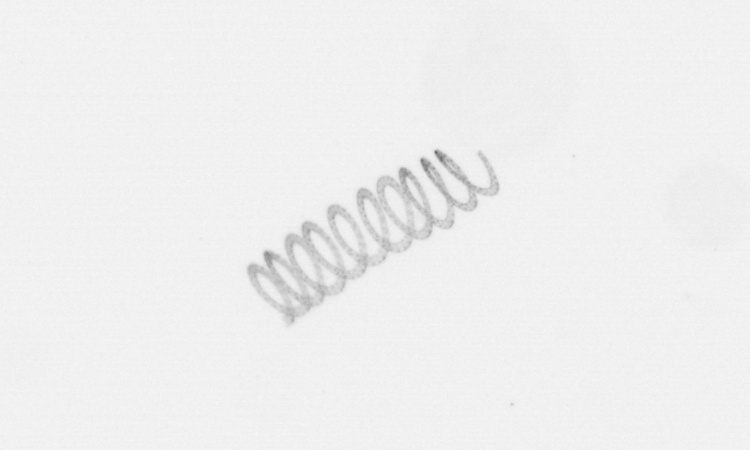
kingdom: Chromista
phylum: Ochrophyta
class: Bacillariophyceae
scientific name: Bacillariophyceae
